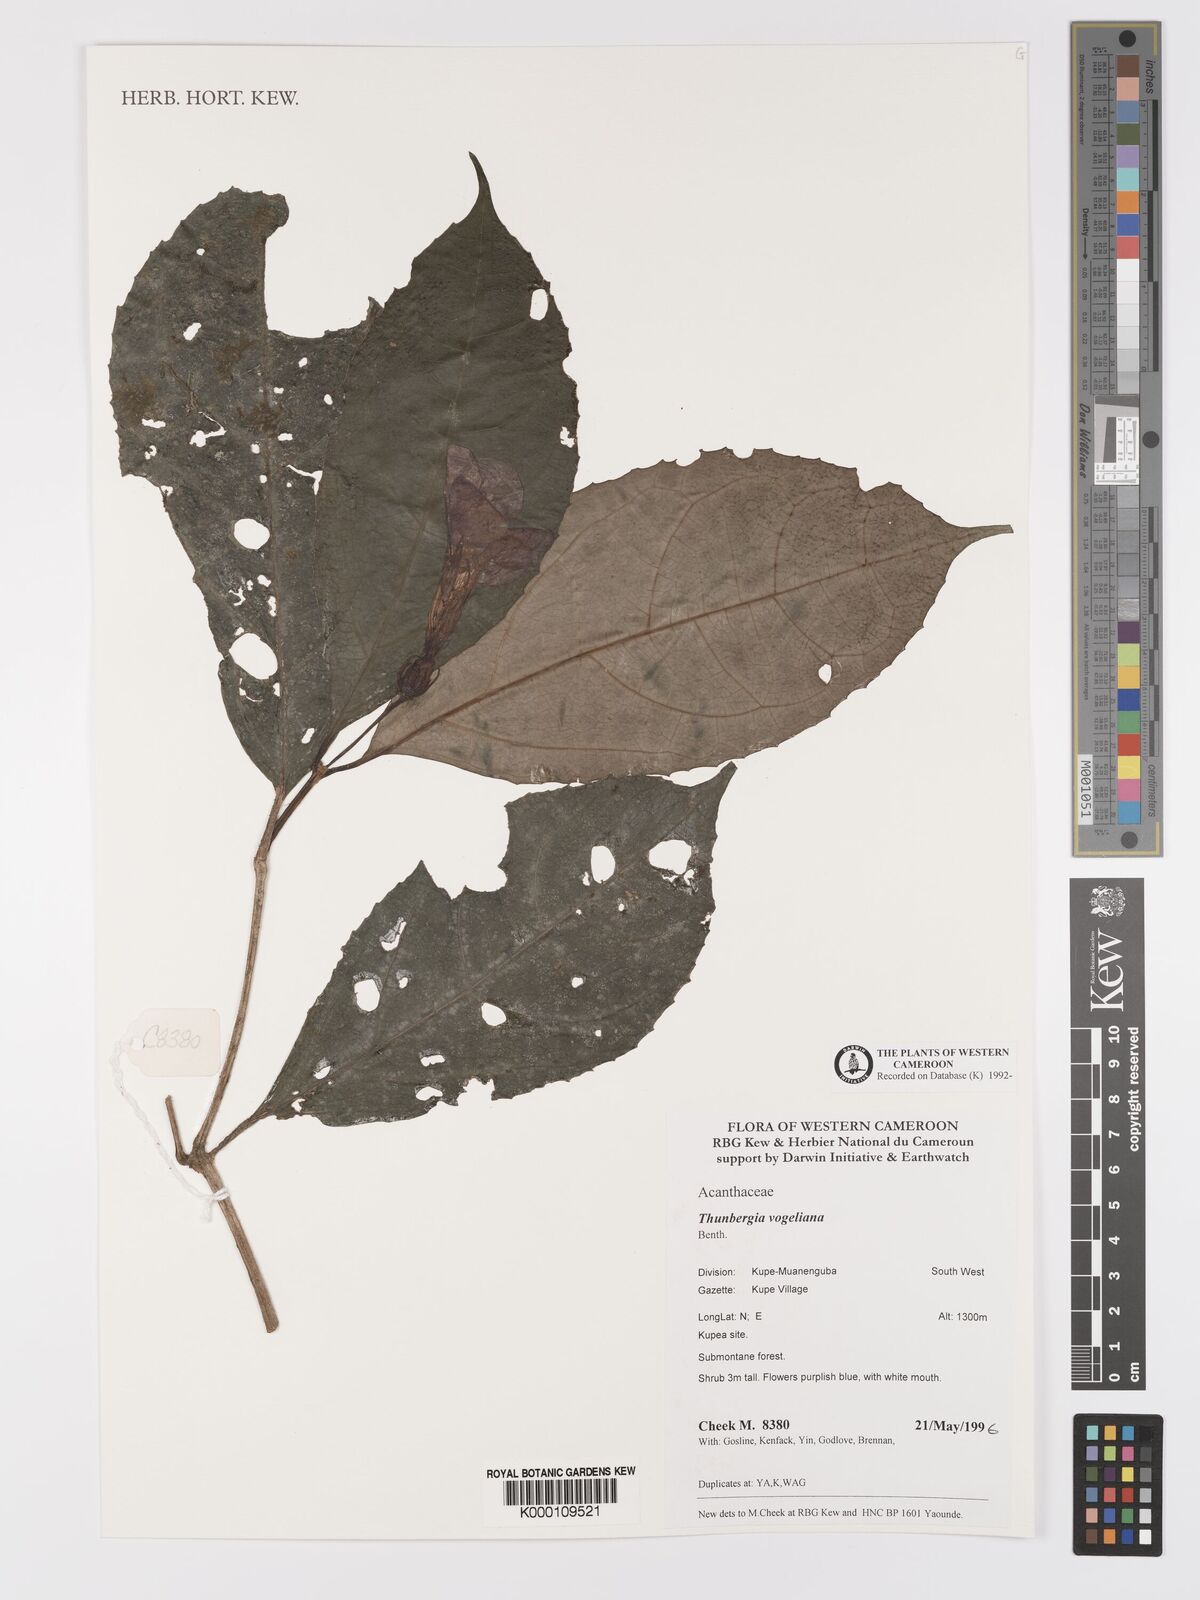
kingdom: Plantae
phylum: Tracheophyta
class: Magnoliopsida
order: Lamiales
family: Acanthaceae
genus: Thunbergia
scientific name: Thunbergia vogeliana
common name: Acanthaceae
